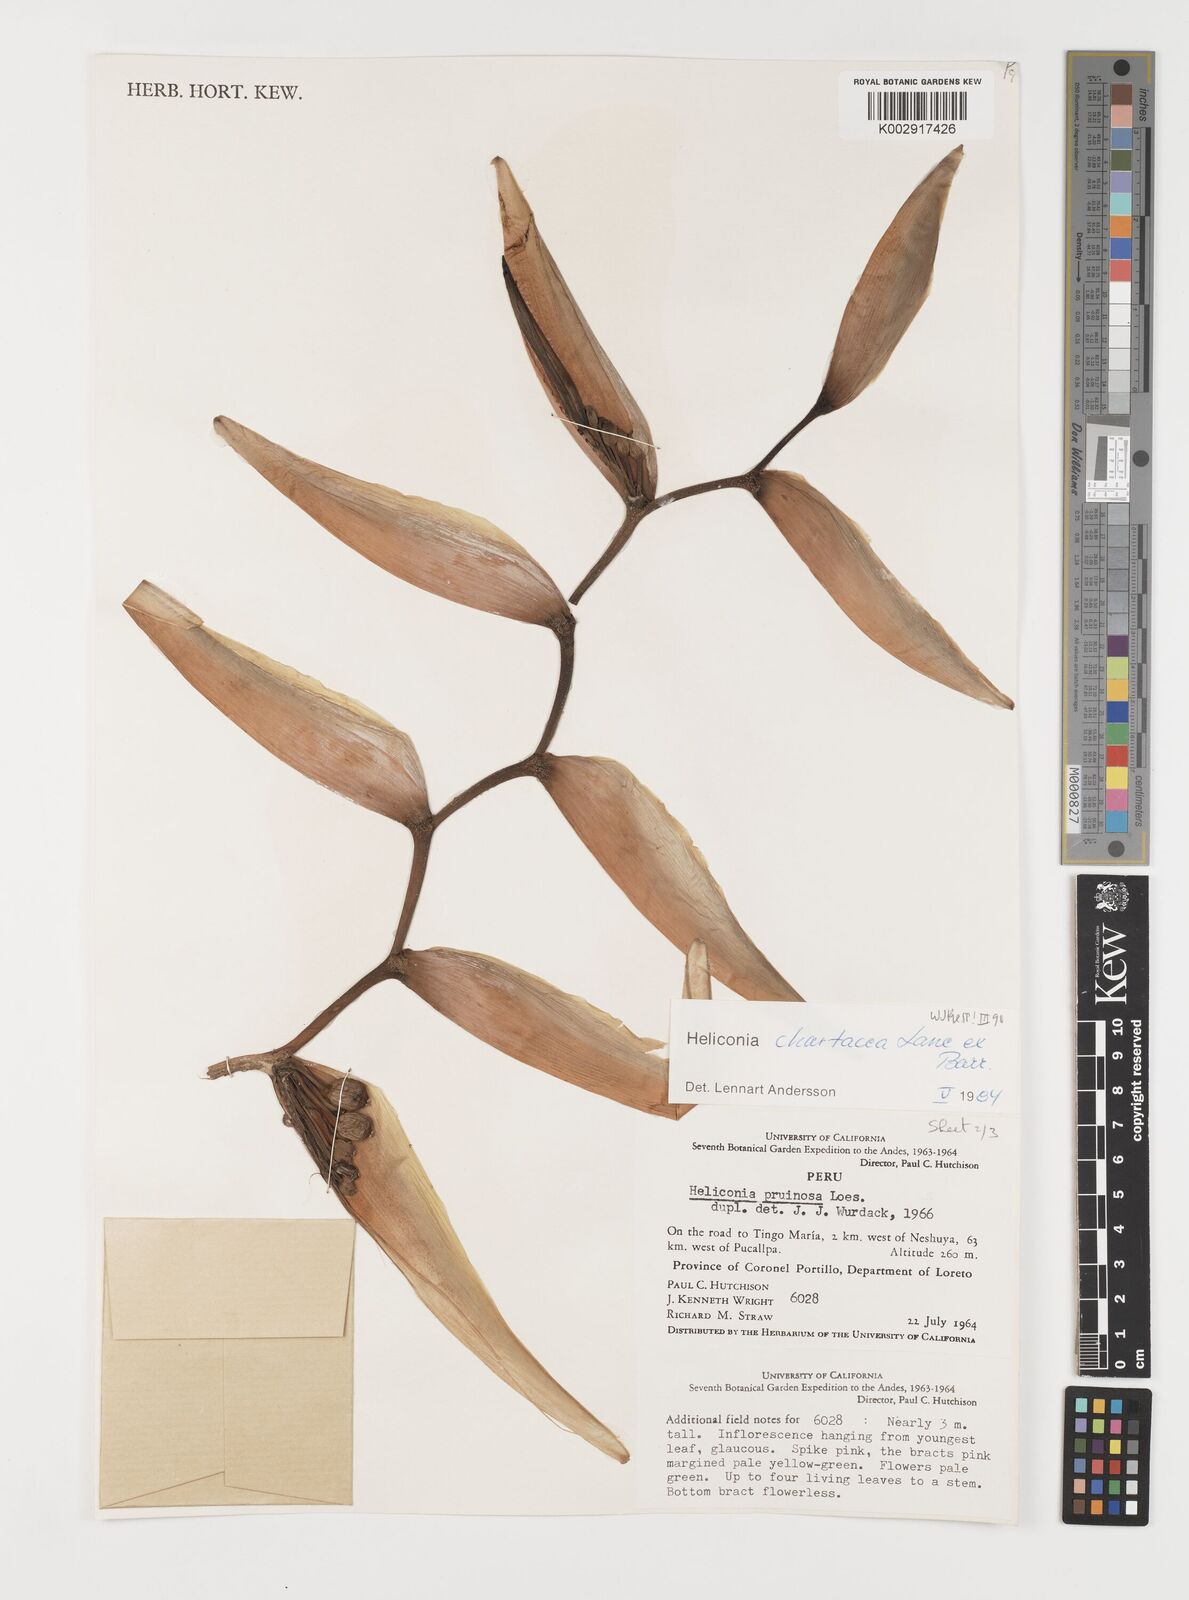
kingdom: Plantae
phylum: Tracheophyta
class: Liliopsida
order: Zingiberales
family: Heliconiaceae
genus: Heliconia
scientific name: Heliconia chartacea
